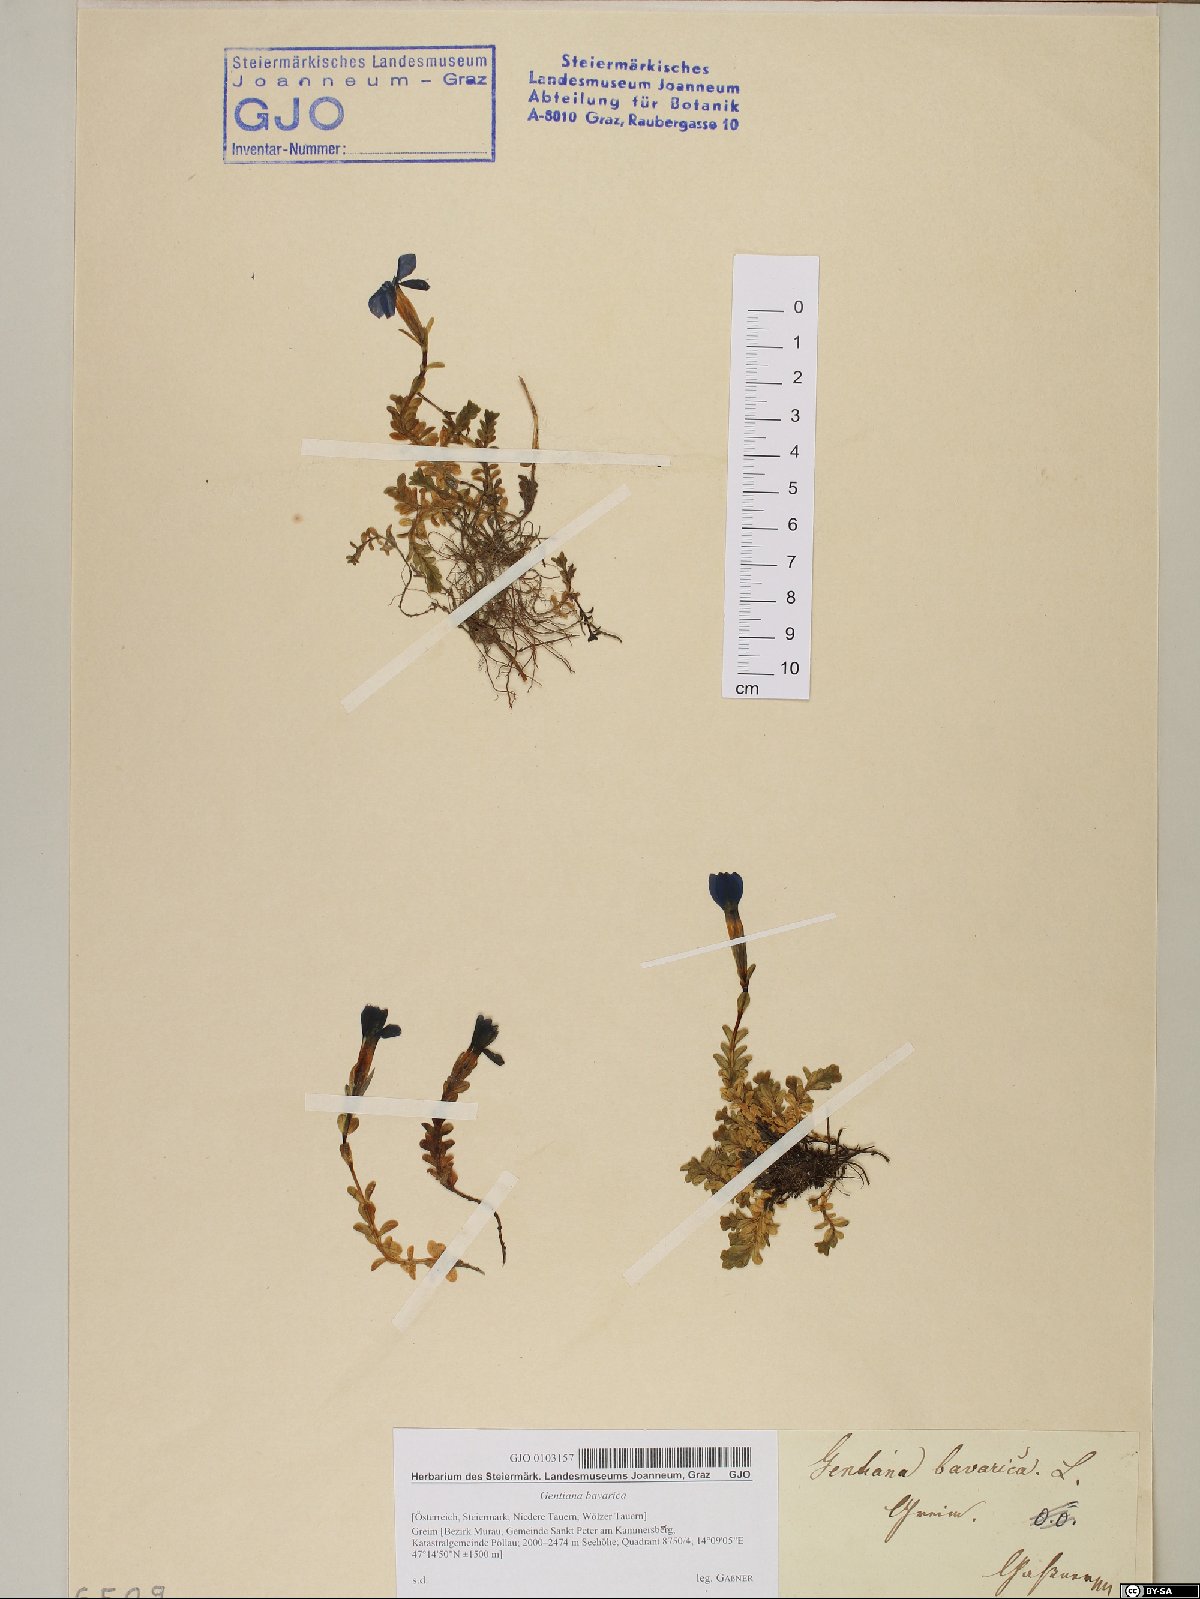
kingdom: Plantae
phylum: Tracheophyta
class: Magnoliopsida
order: Gentianales
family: Gentianaceae
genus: Gentiana
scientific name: Gentiana bavarica
